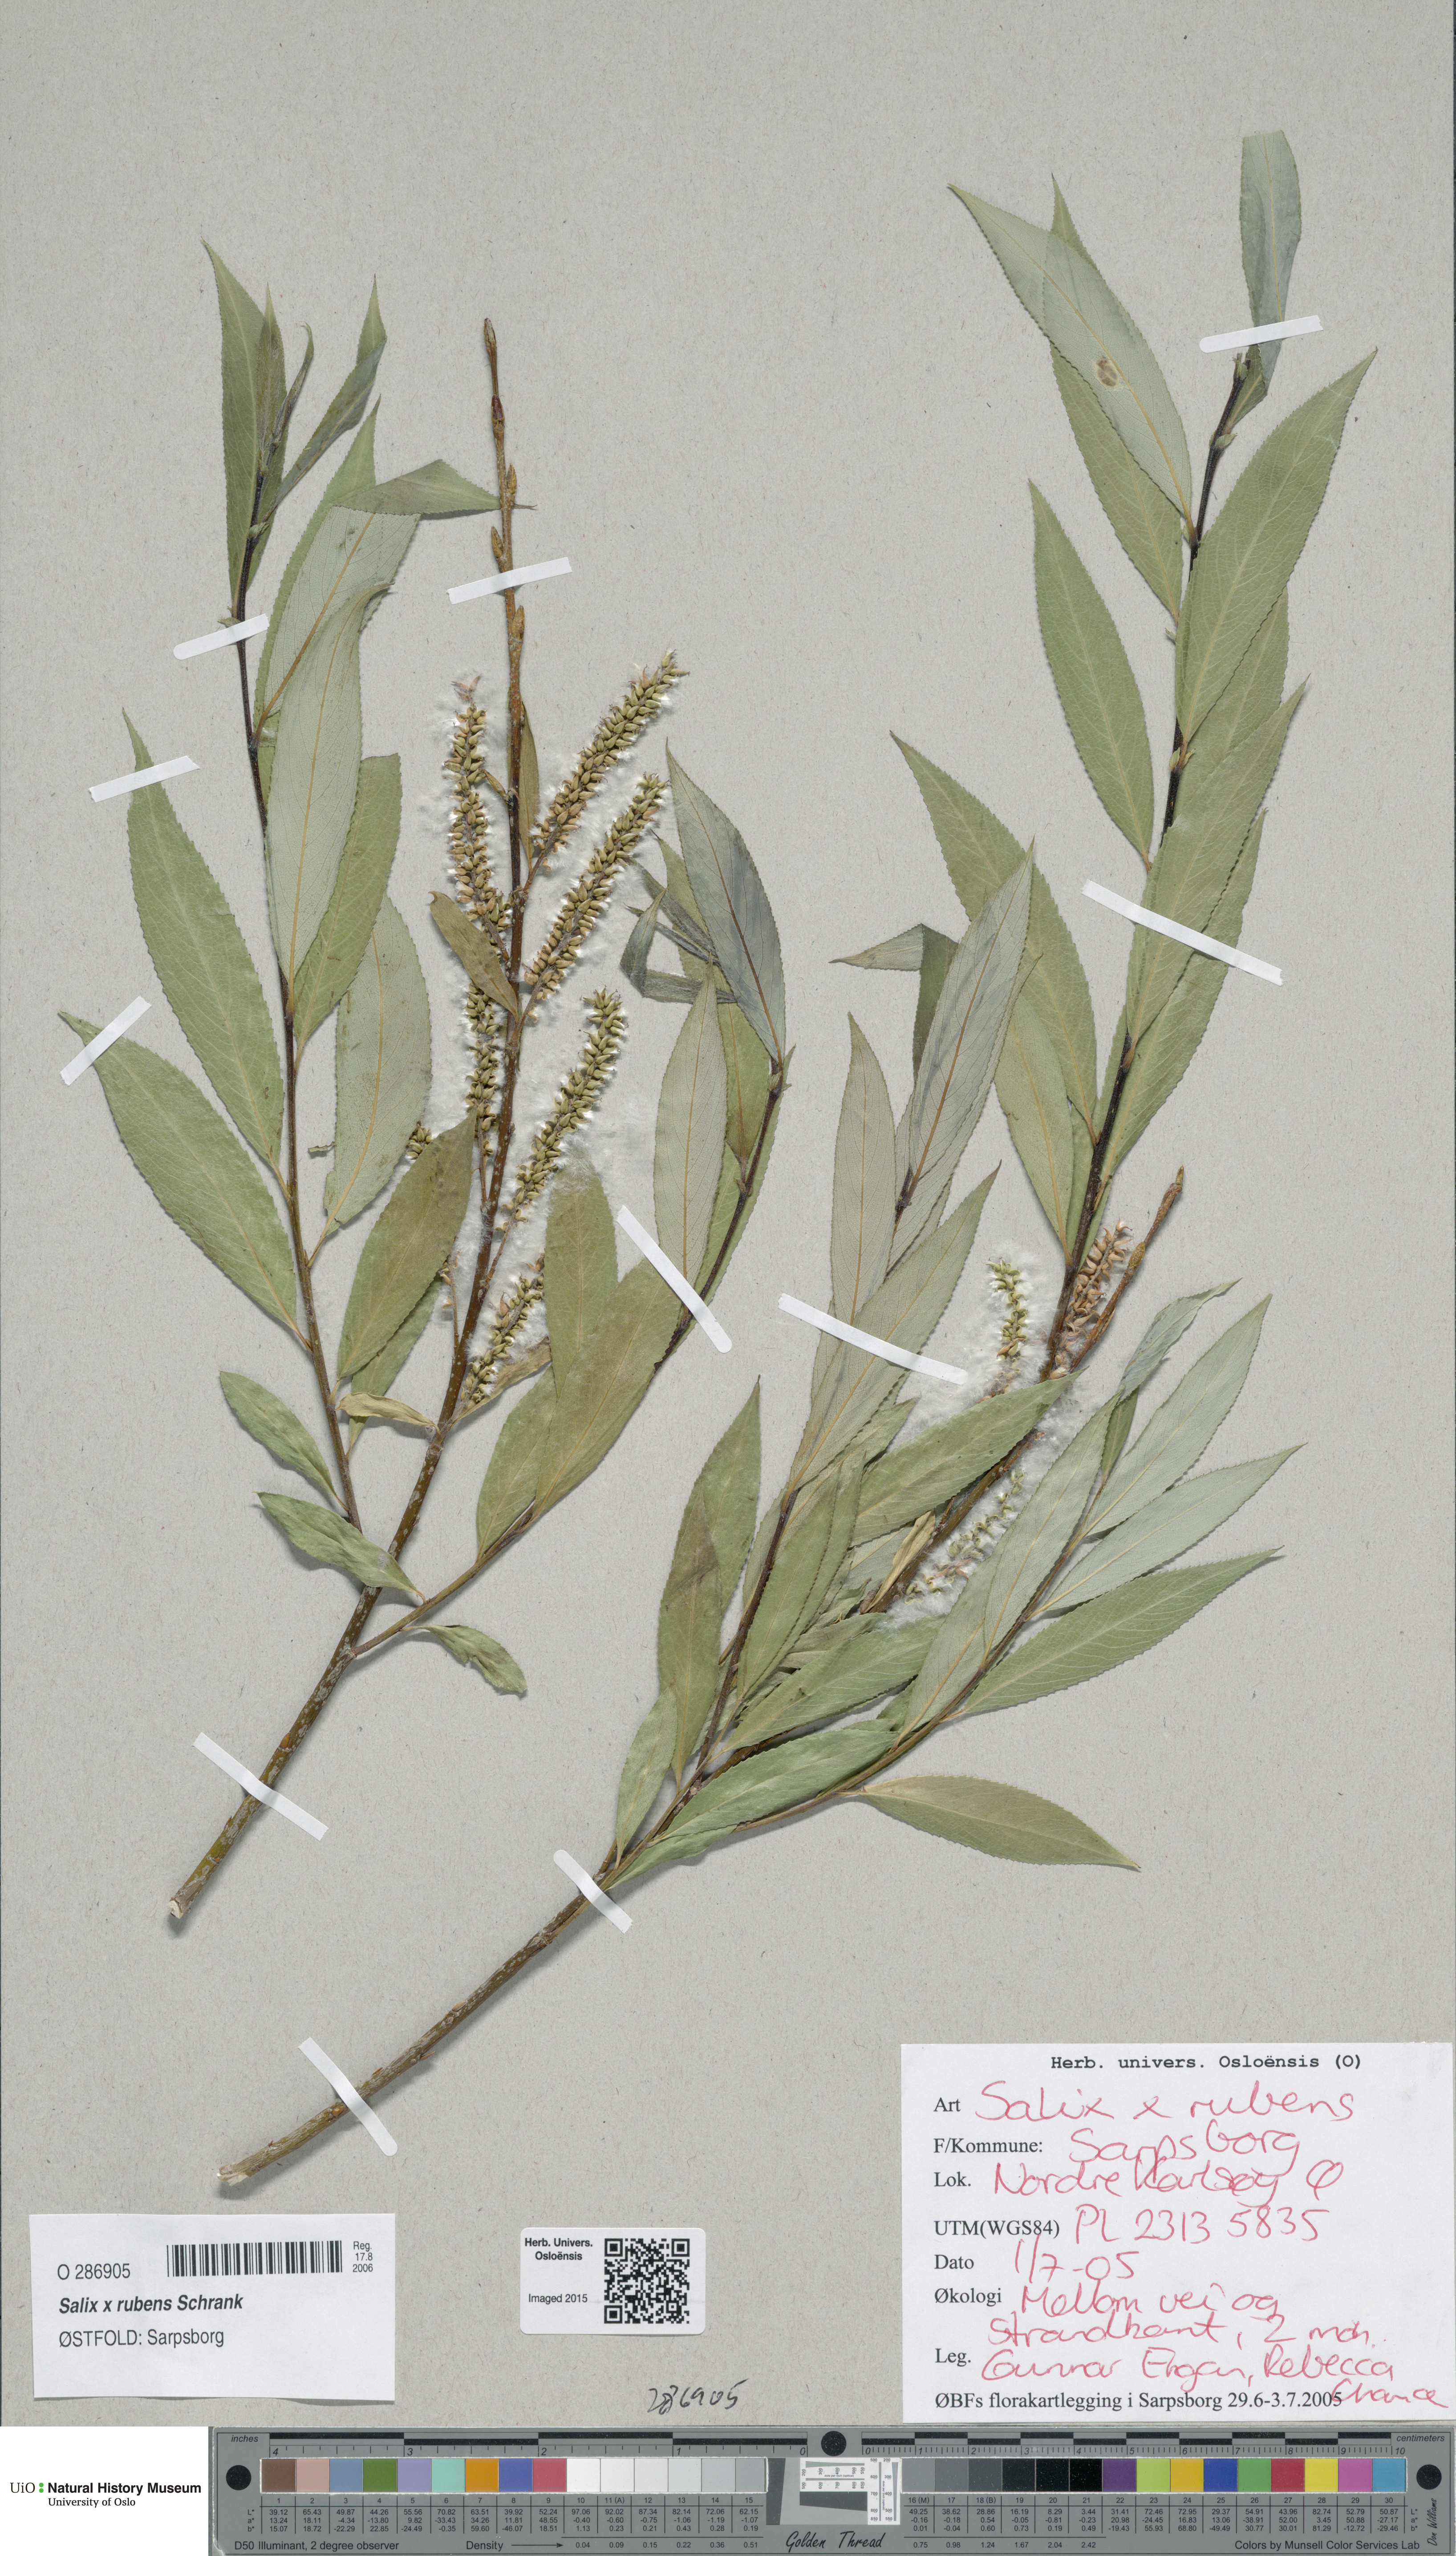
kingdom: Plantae
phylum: Tracheophyta
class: Magnoliopsida
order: Malpighiales
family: Salicaceae
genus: Salix
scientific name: Salix fragilis
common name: Crack willow
